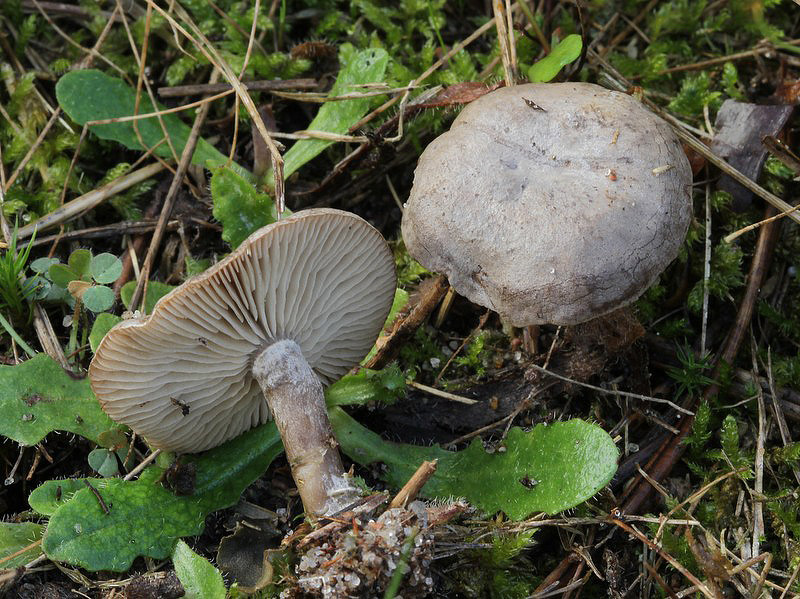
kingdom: Fungi
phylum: Basidiomycota
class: Agaricomycetes
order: Agaricales
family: Entolomataceae
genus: Clitopilus
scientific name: Clitopilus caelatus
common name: gråbrun troldhat
